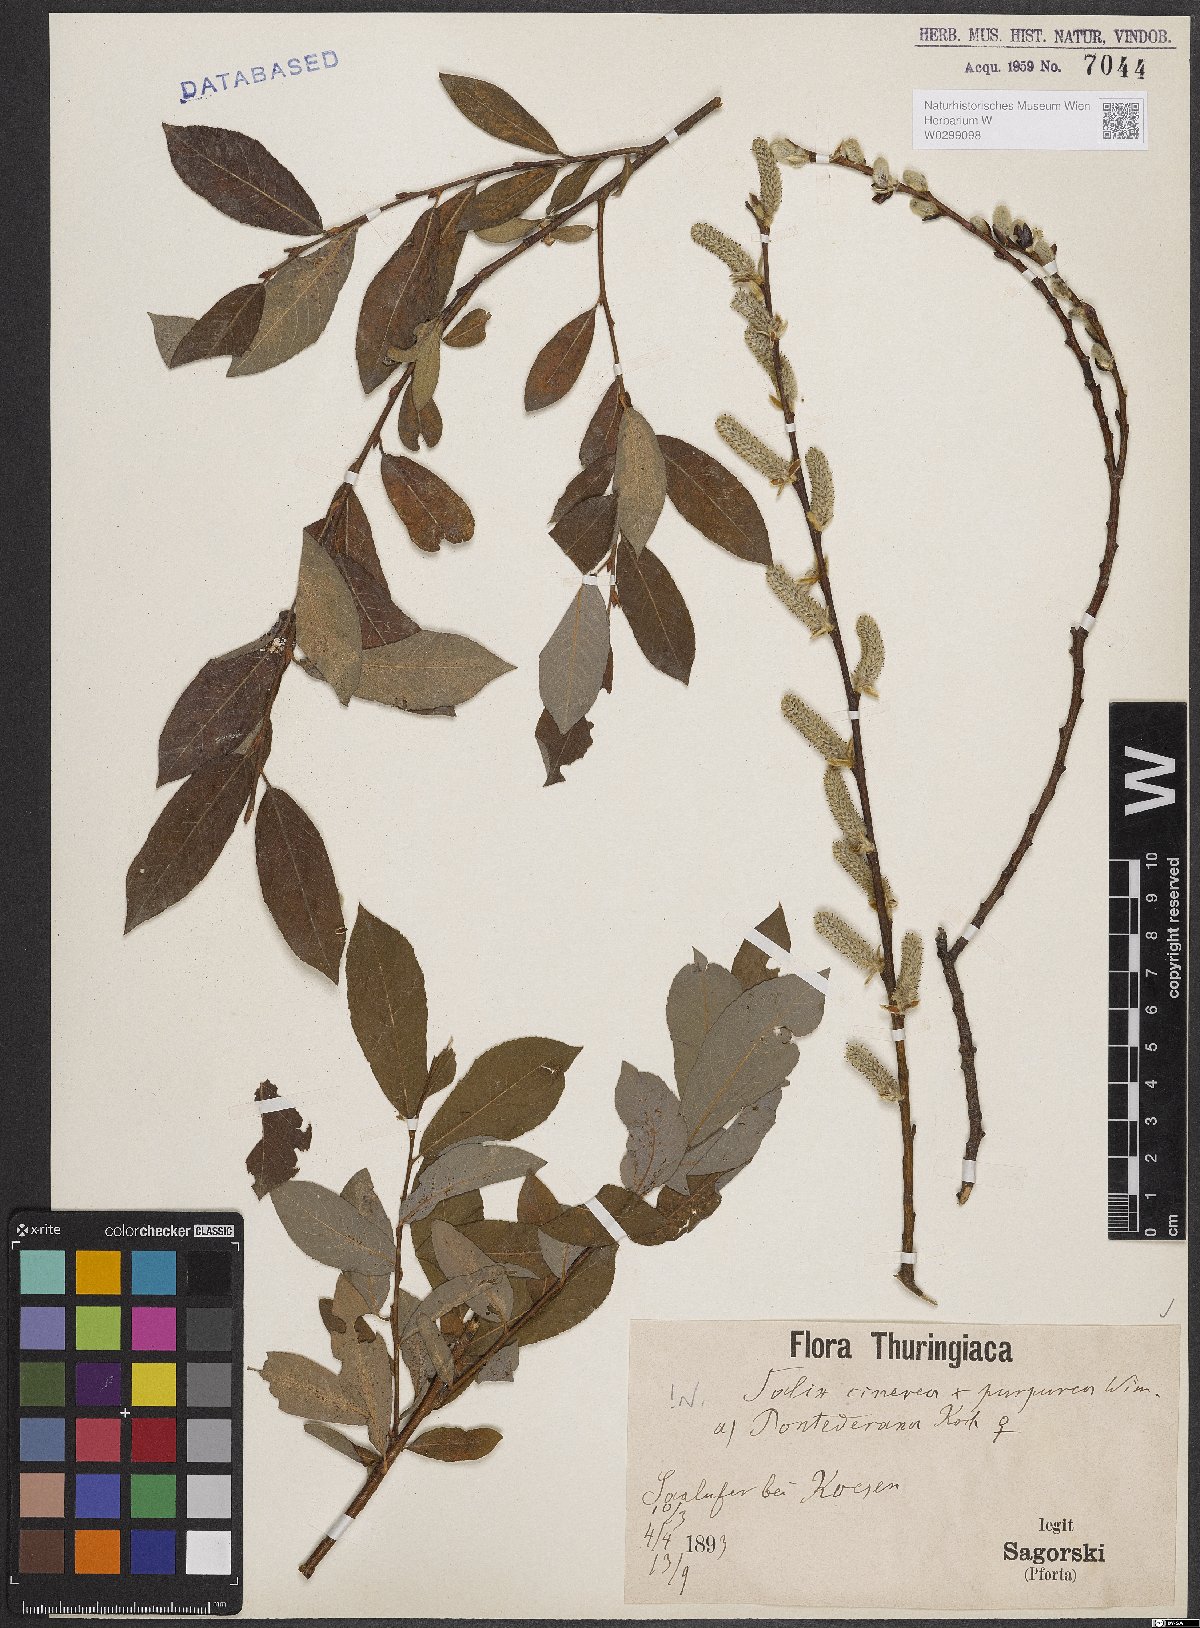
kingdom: Plantae
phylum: Tracheophyta
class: Magnoliopsida
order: Malpighiales
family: Salicaceae
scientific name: Salicaceae
